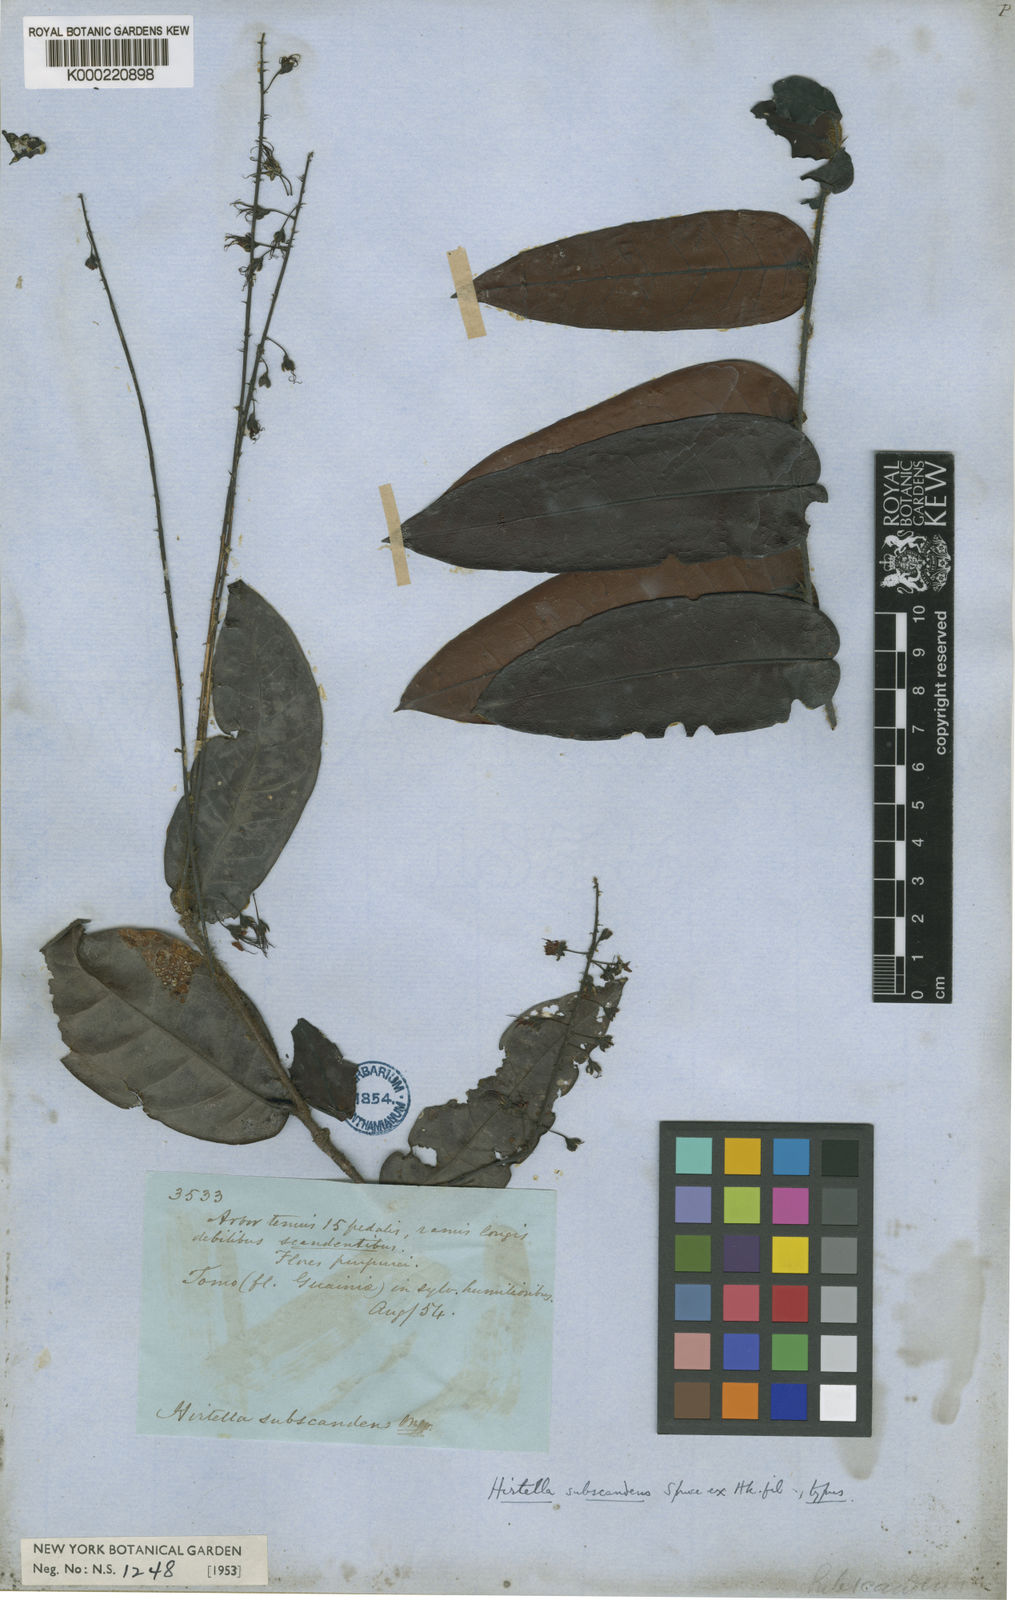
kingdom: Plantae
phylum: Tracheophyta
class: Magnoliopsida
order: Malpighiales
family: Chrysobalanaceae
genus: Hirtella
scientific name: Hirtella subscandens
